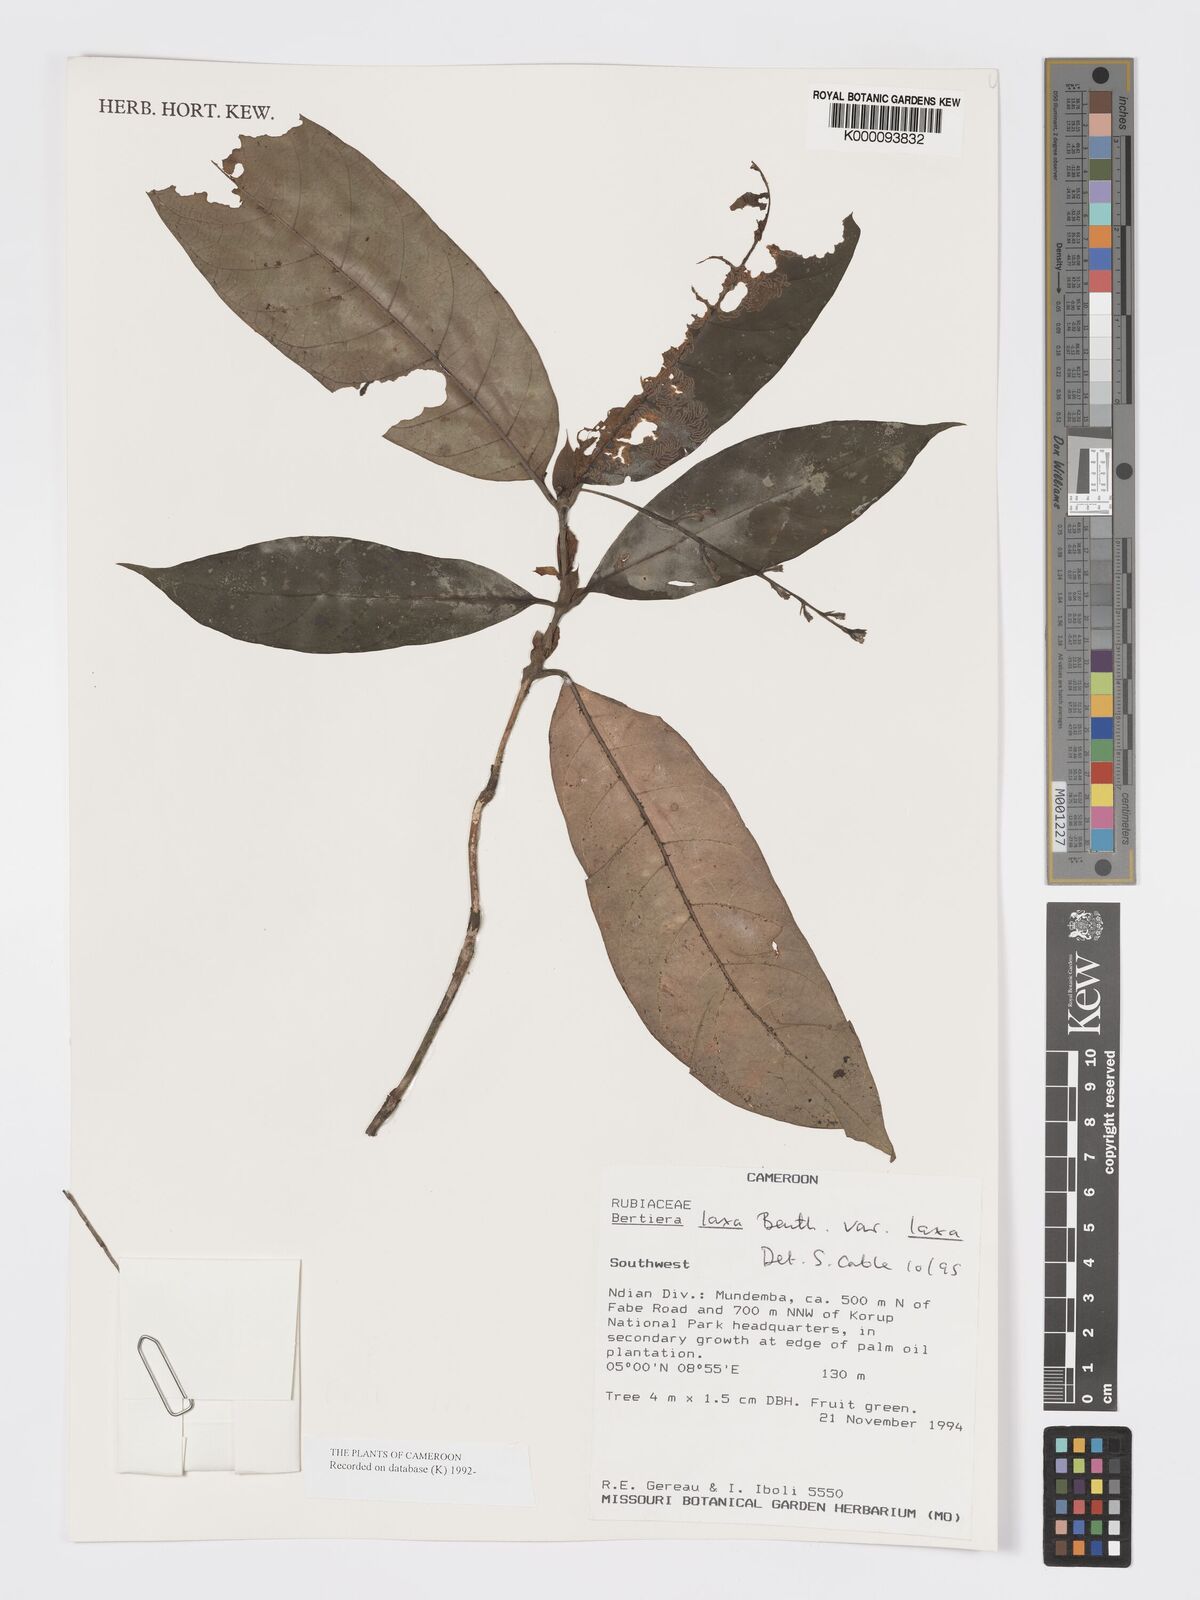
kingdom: Plantae
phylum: Tracheophyta
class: Magnoliopsida
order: Gentianales
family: Rubiaceae
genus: Bertiera
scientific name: Bertiera laxa
